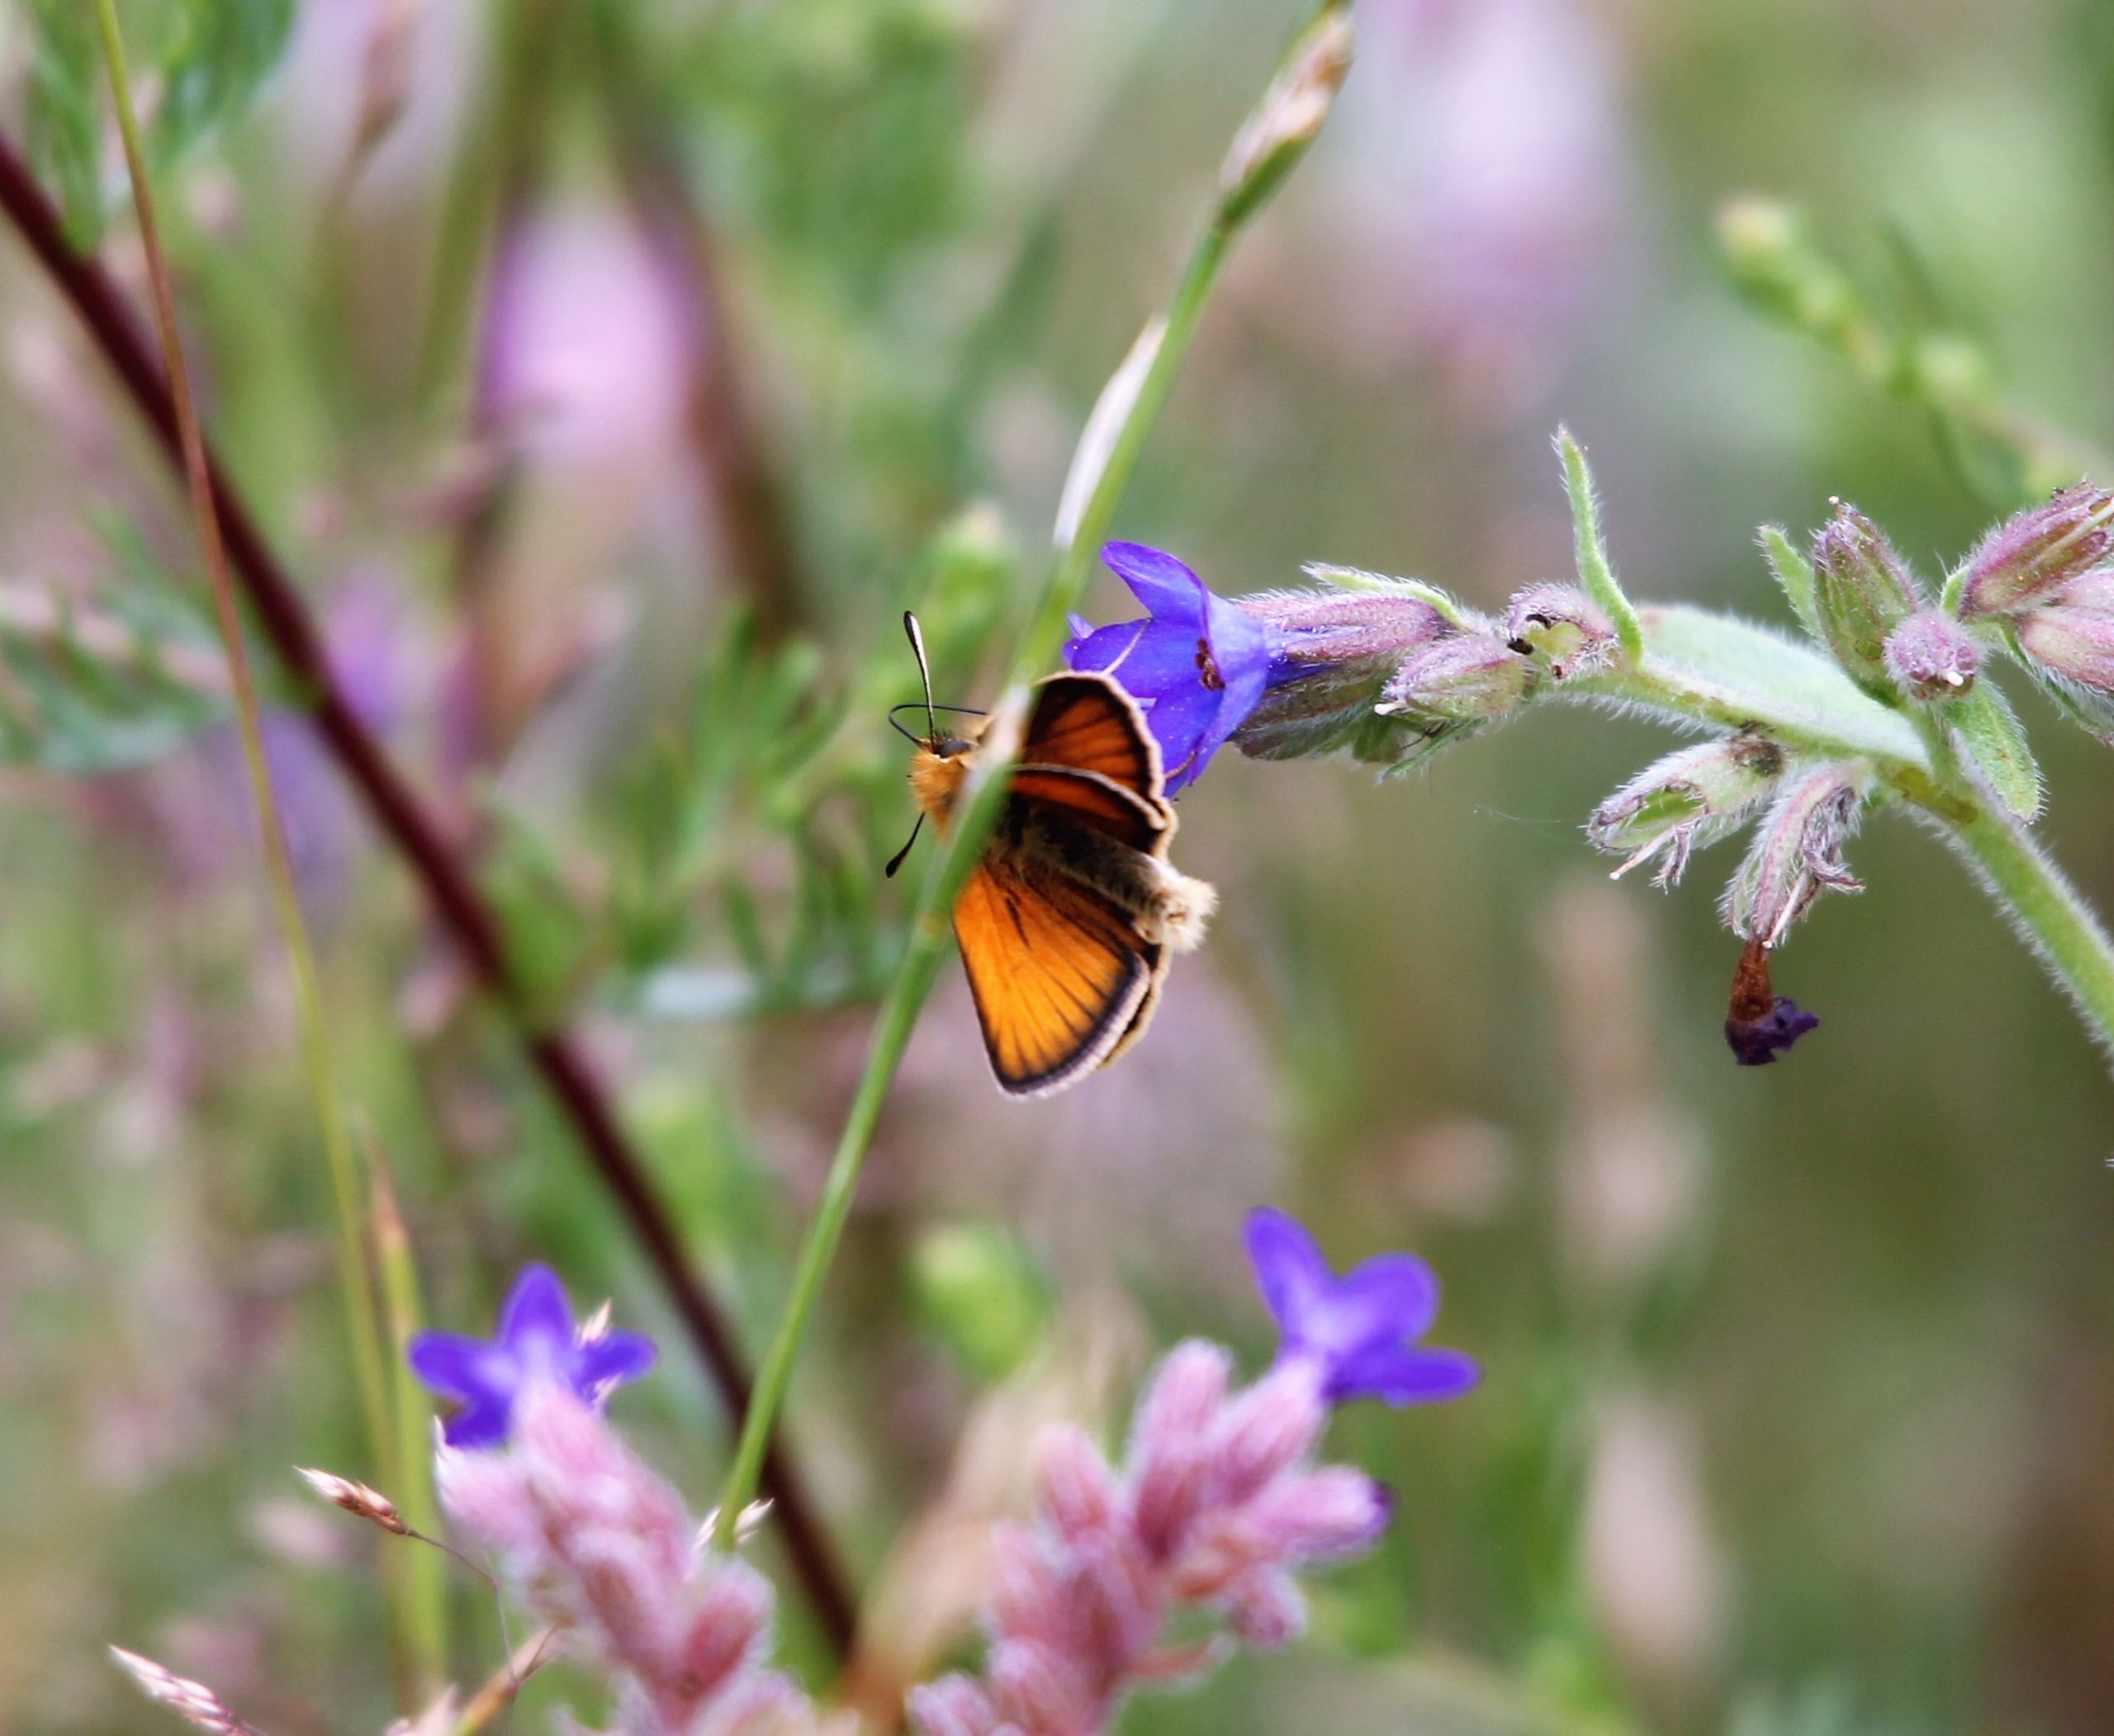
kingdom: Animalia
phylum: Arthropoda
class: Insecta
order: Lepidoptera
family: Hesperiidae
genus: Thymelicus
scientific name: Thymelicus lineola
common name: Stregbredpande
